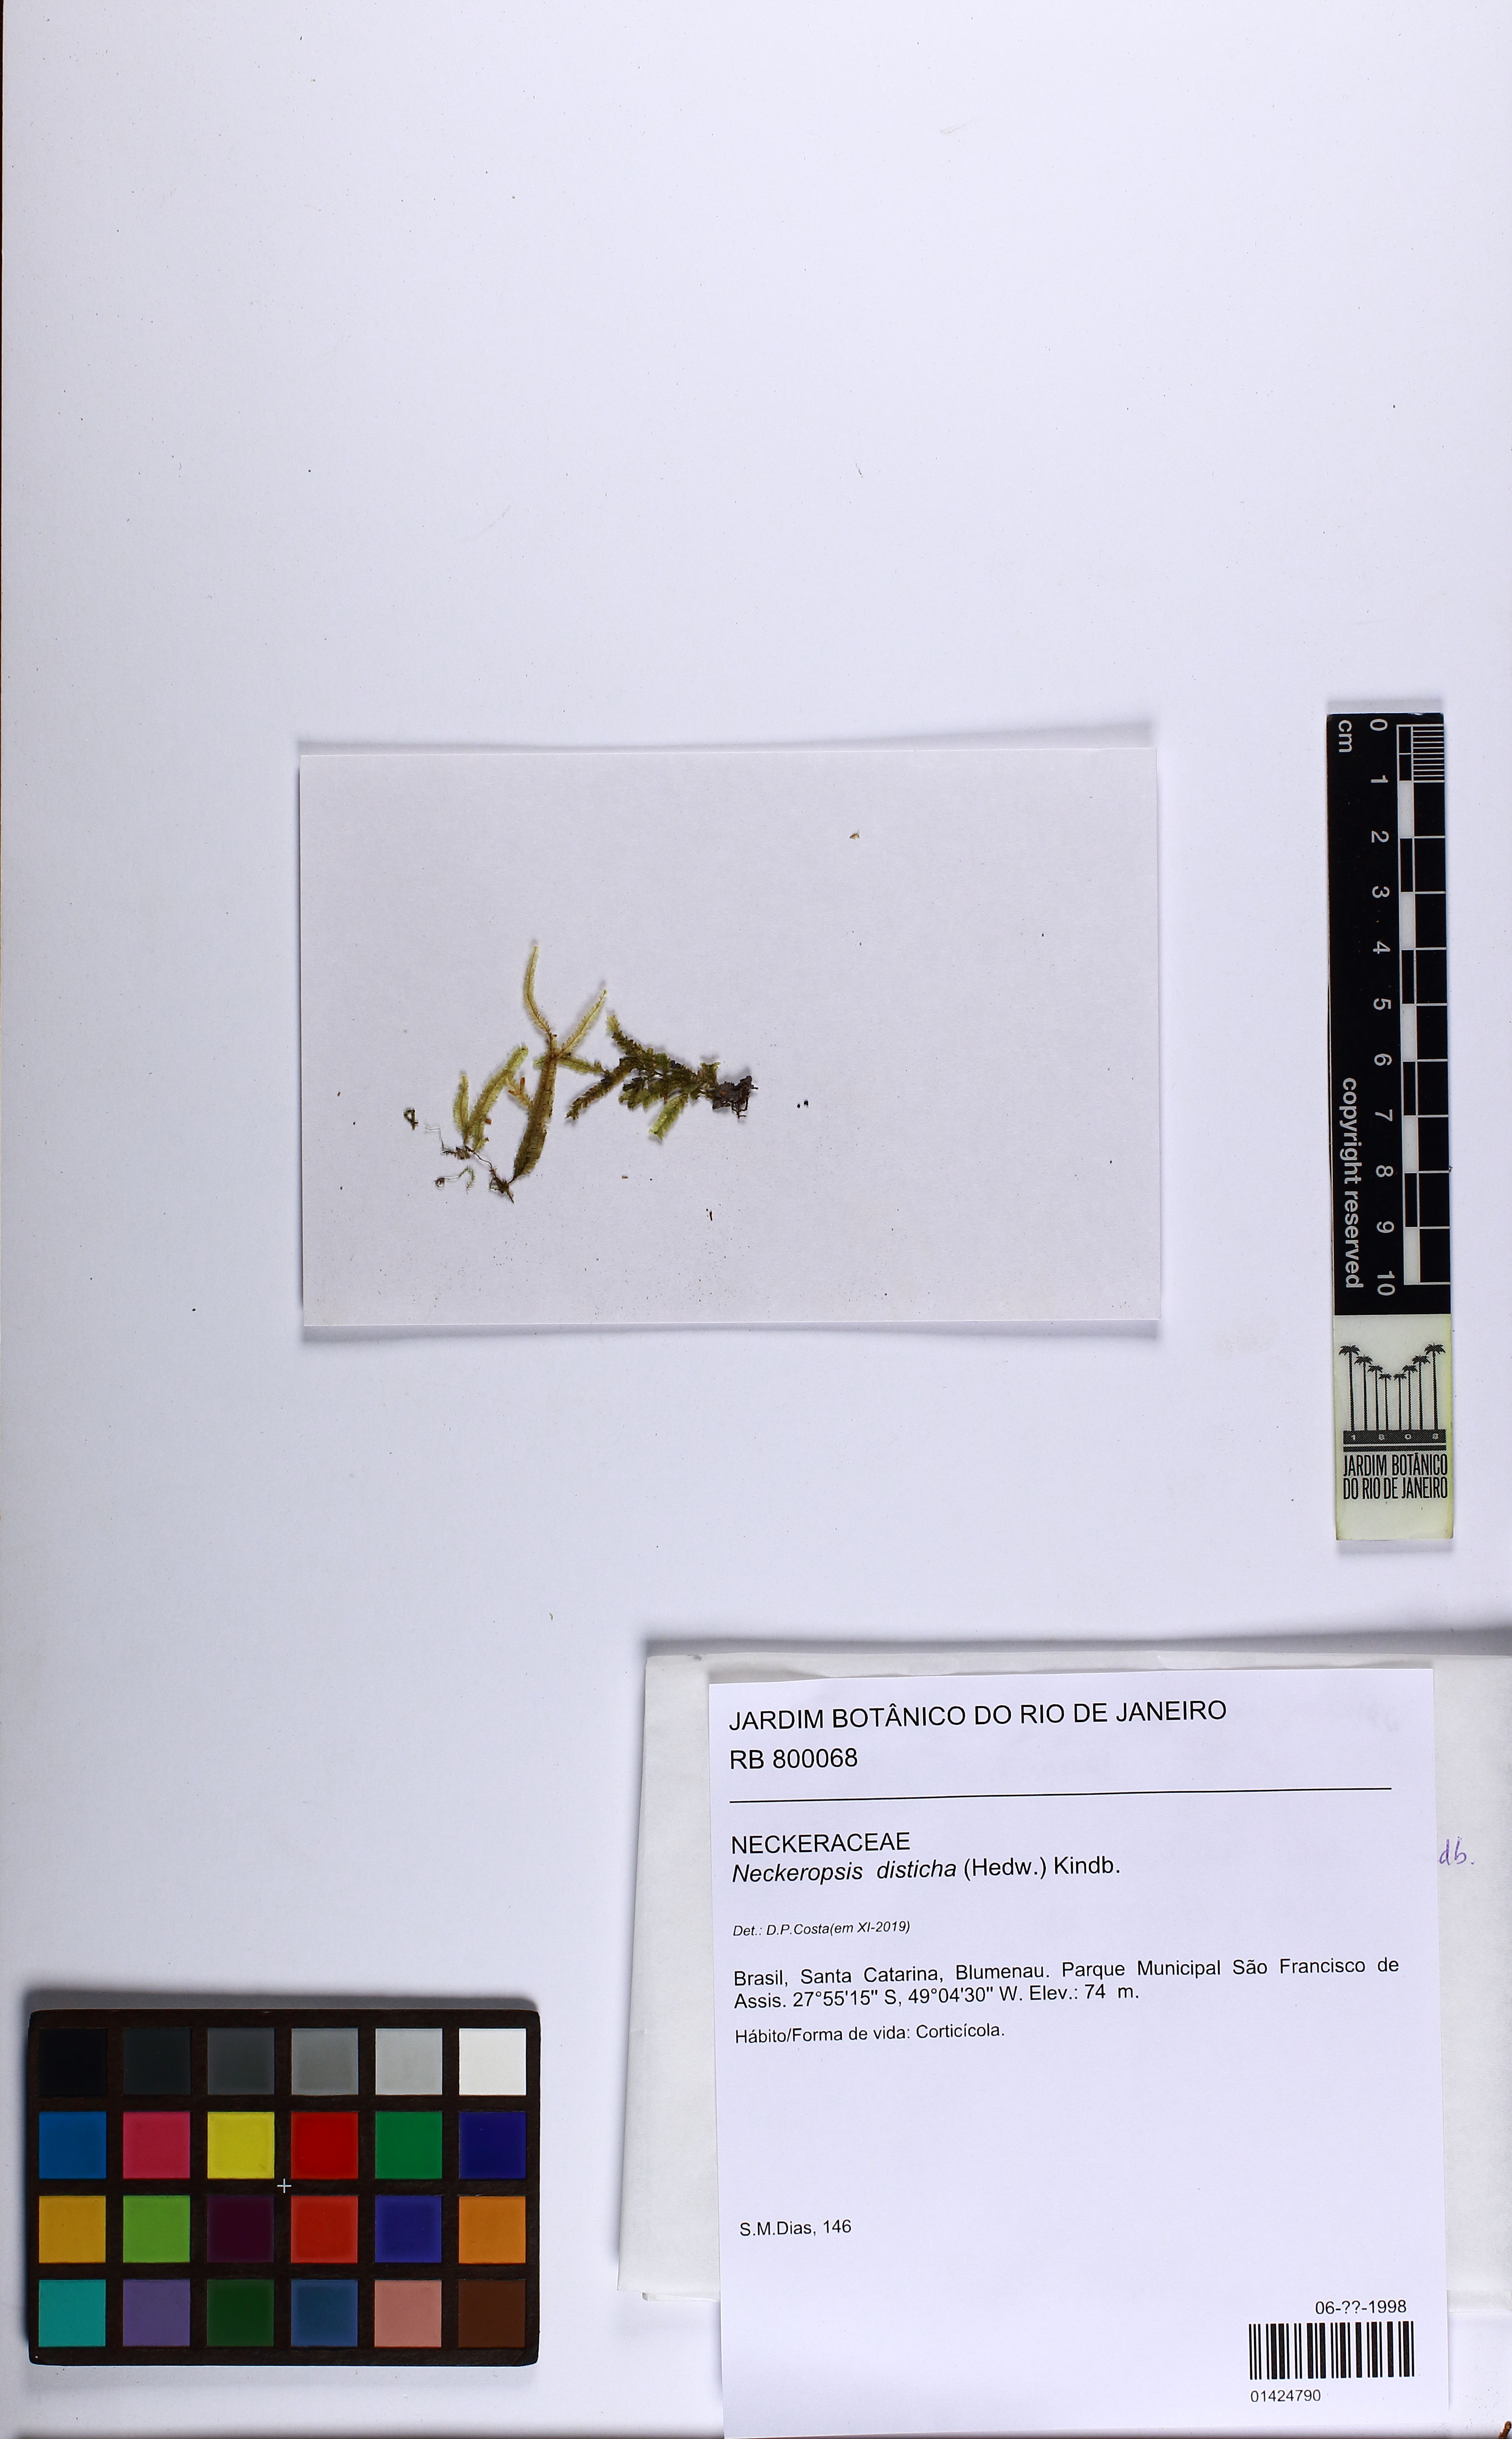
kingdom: Plantae
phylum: Bryophyta
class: Bryopsida
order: Hypnales
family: Neckeraceae
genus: Neckeropsis
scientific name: Neckeropsis disticha
